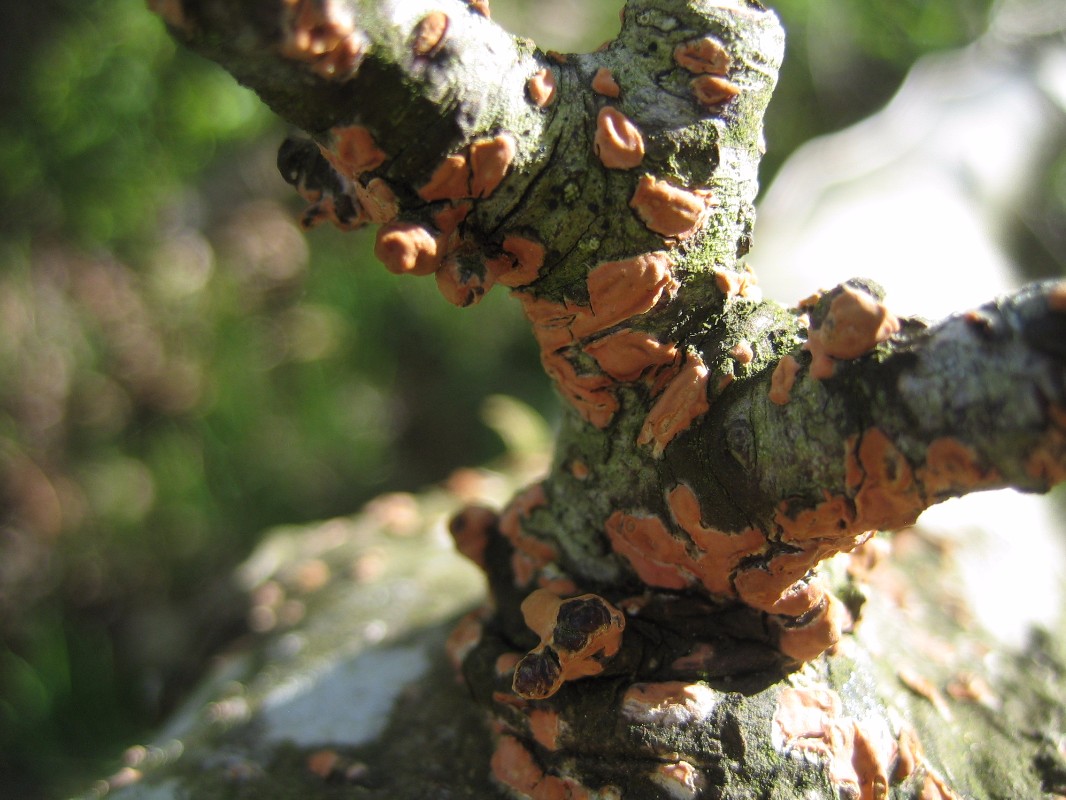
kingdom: Fungi
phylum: Basidiomycota
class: Agaricomycetes
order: Russulales
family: Peniophoraceae
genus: Peniophora
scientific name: Peniophora incarnata
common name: laksefarvet voksskind
